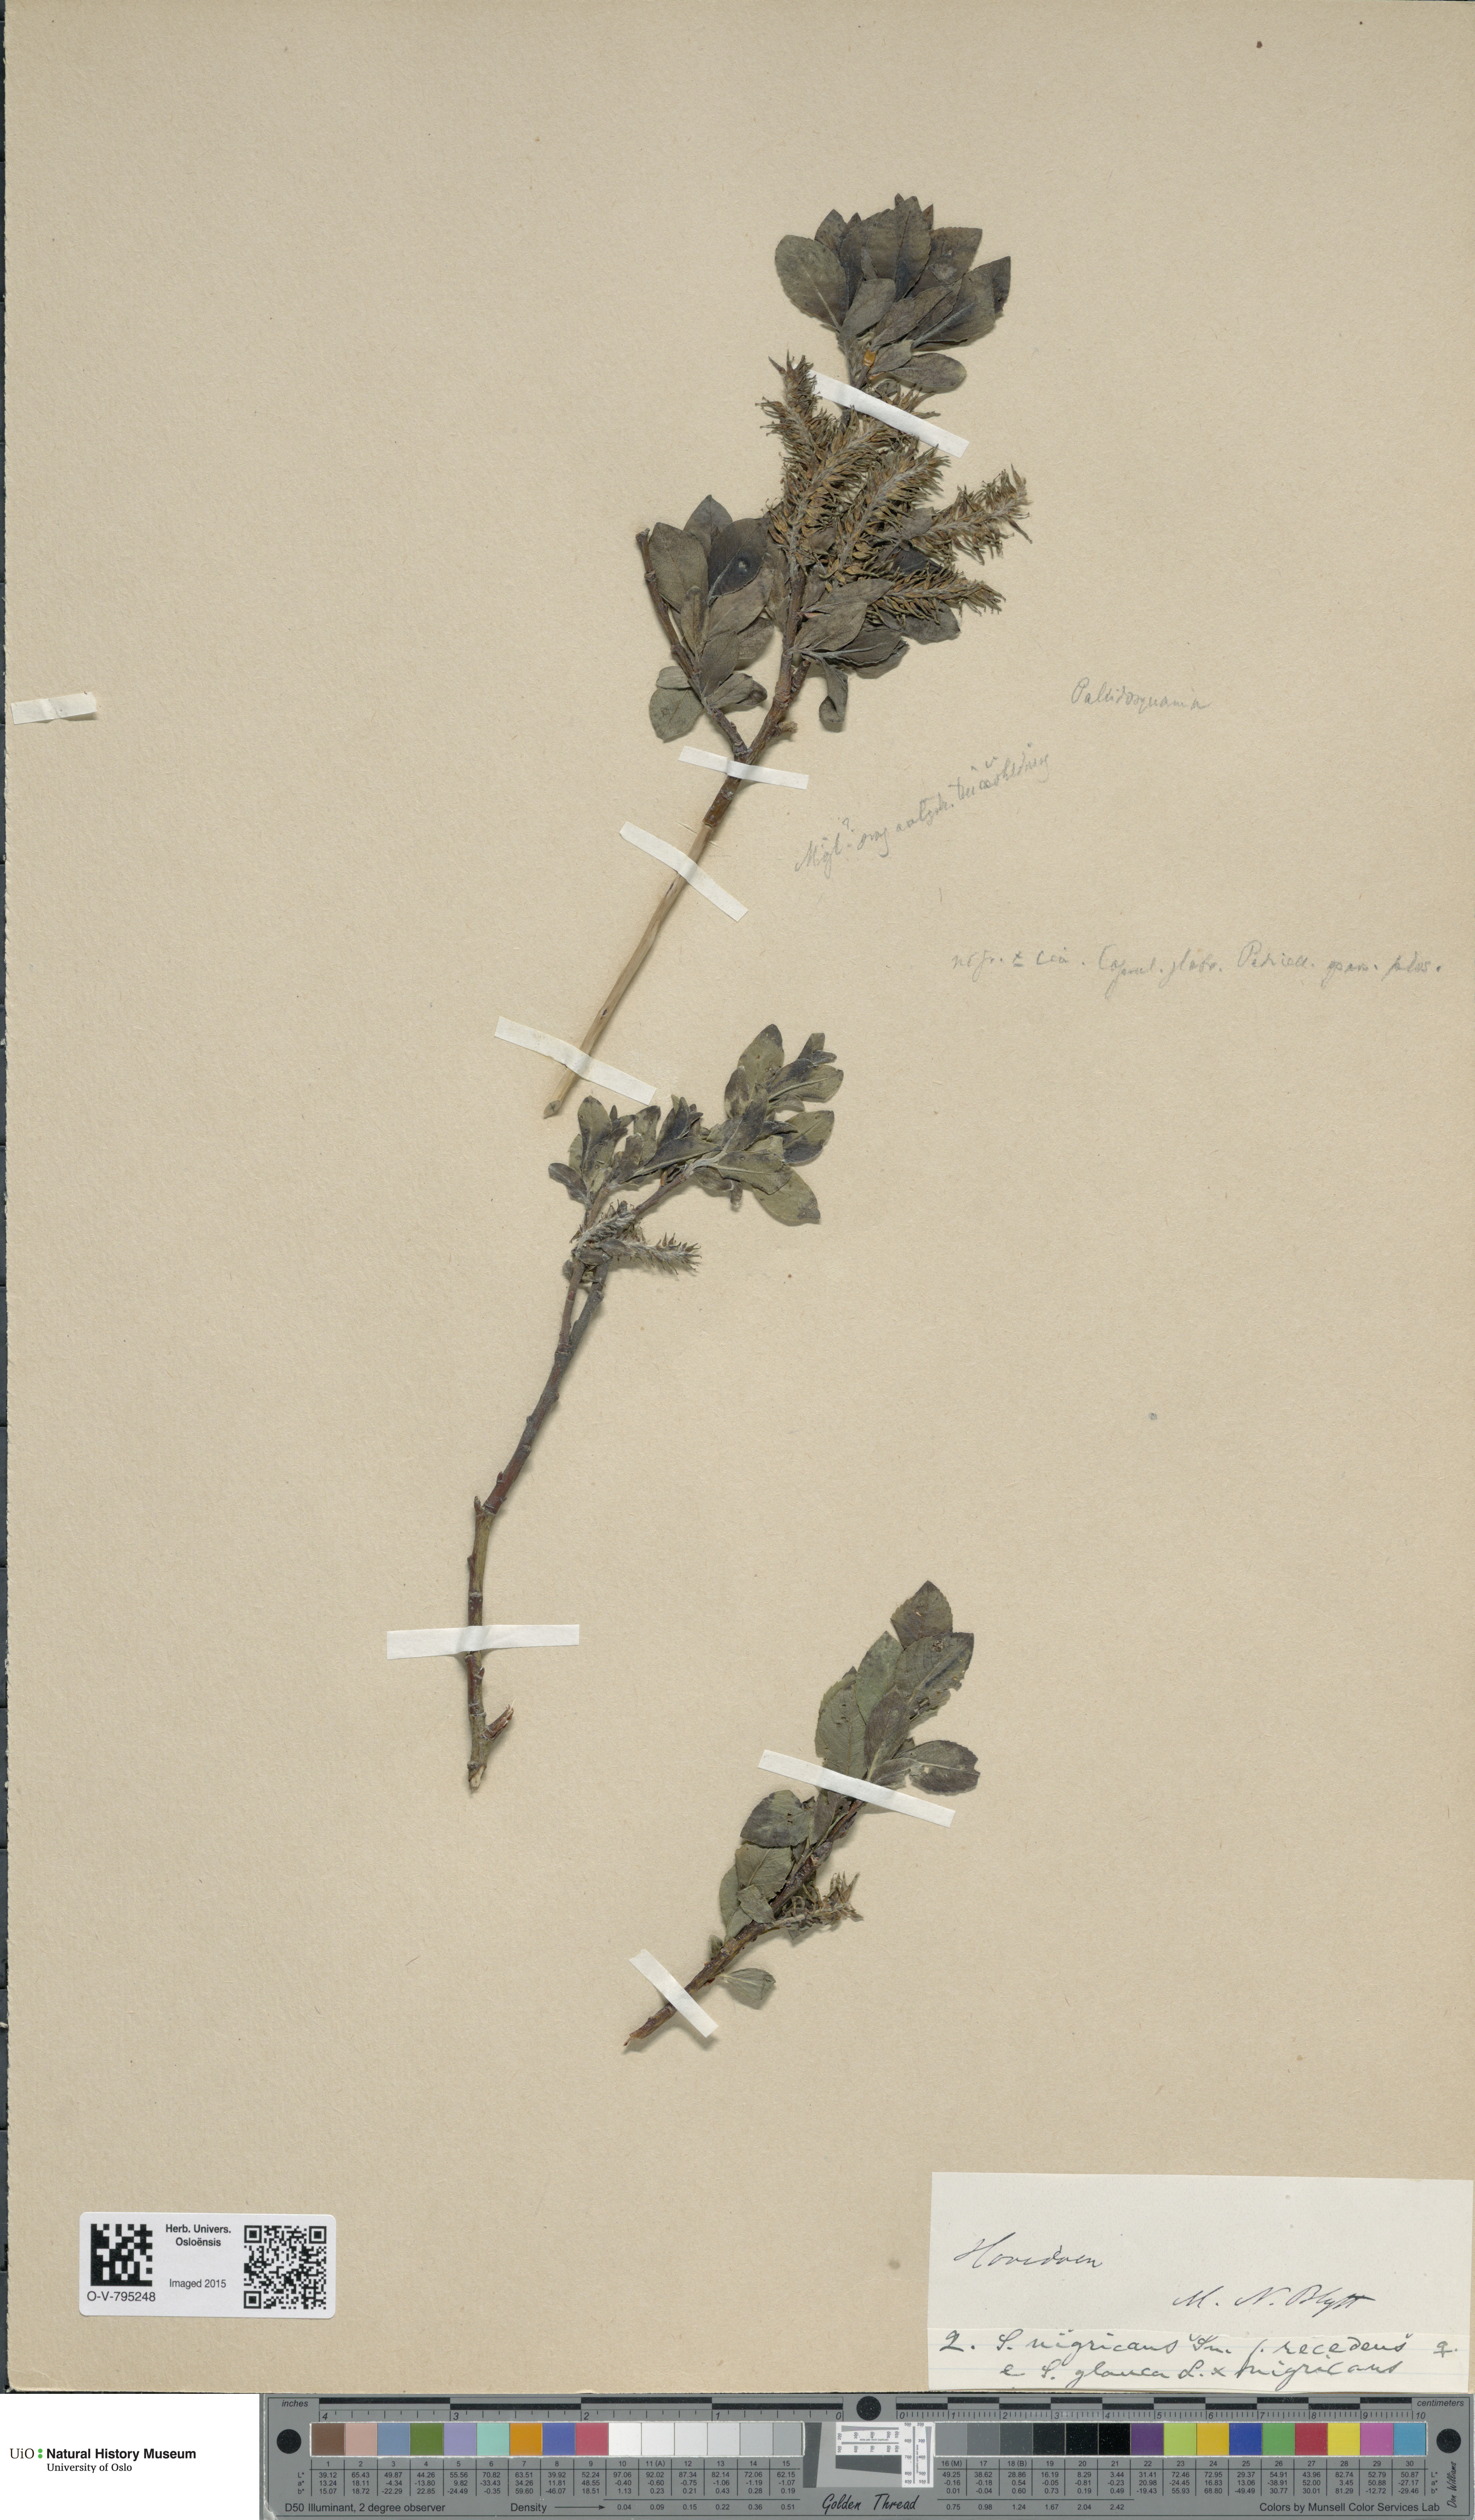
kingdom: Plantae
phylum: Tracheophyta
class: Magnoliopsida
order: Malpighiales
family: Salicaceae
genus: Salix
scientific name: Salix myrsinifolia
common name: Dark-leaved willow
